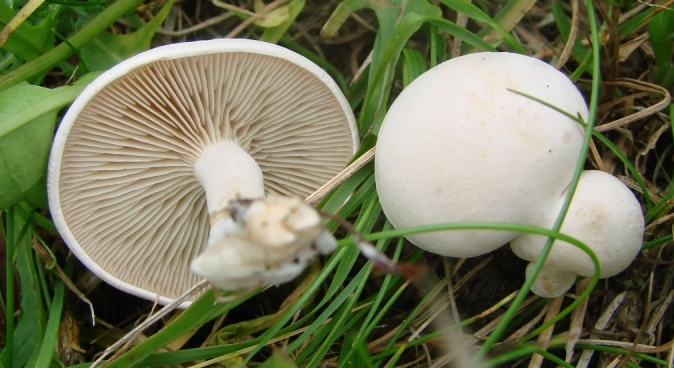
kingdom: Fungi
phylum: Basidiomycota
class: Agaricomycetes
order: Agaricales
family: Tricholomataceae
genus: Clitocybe
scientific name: Clitocybe rivulosa
